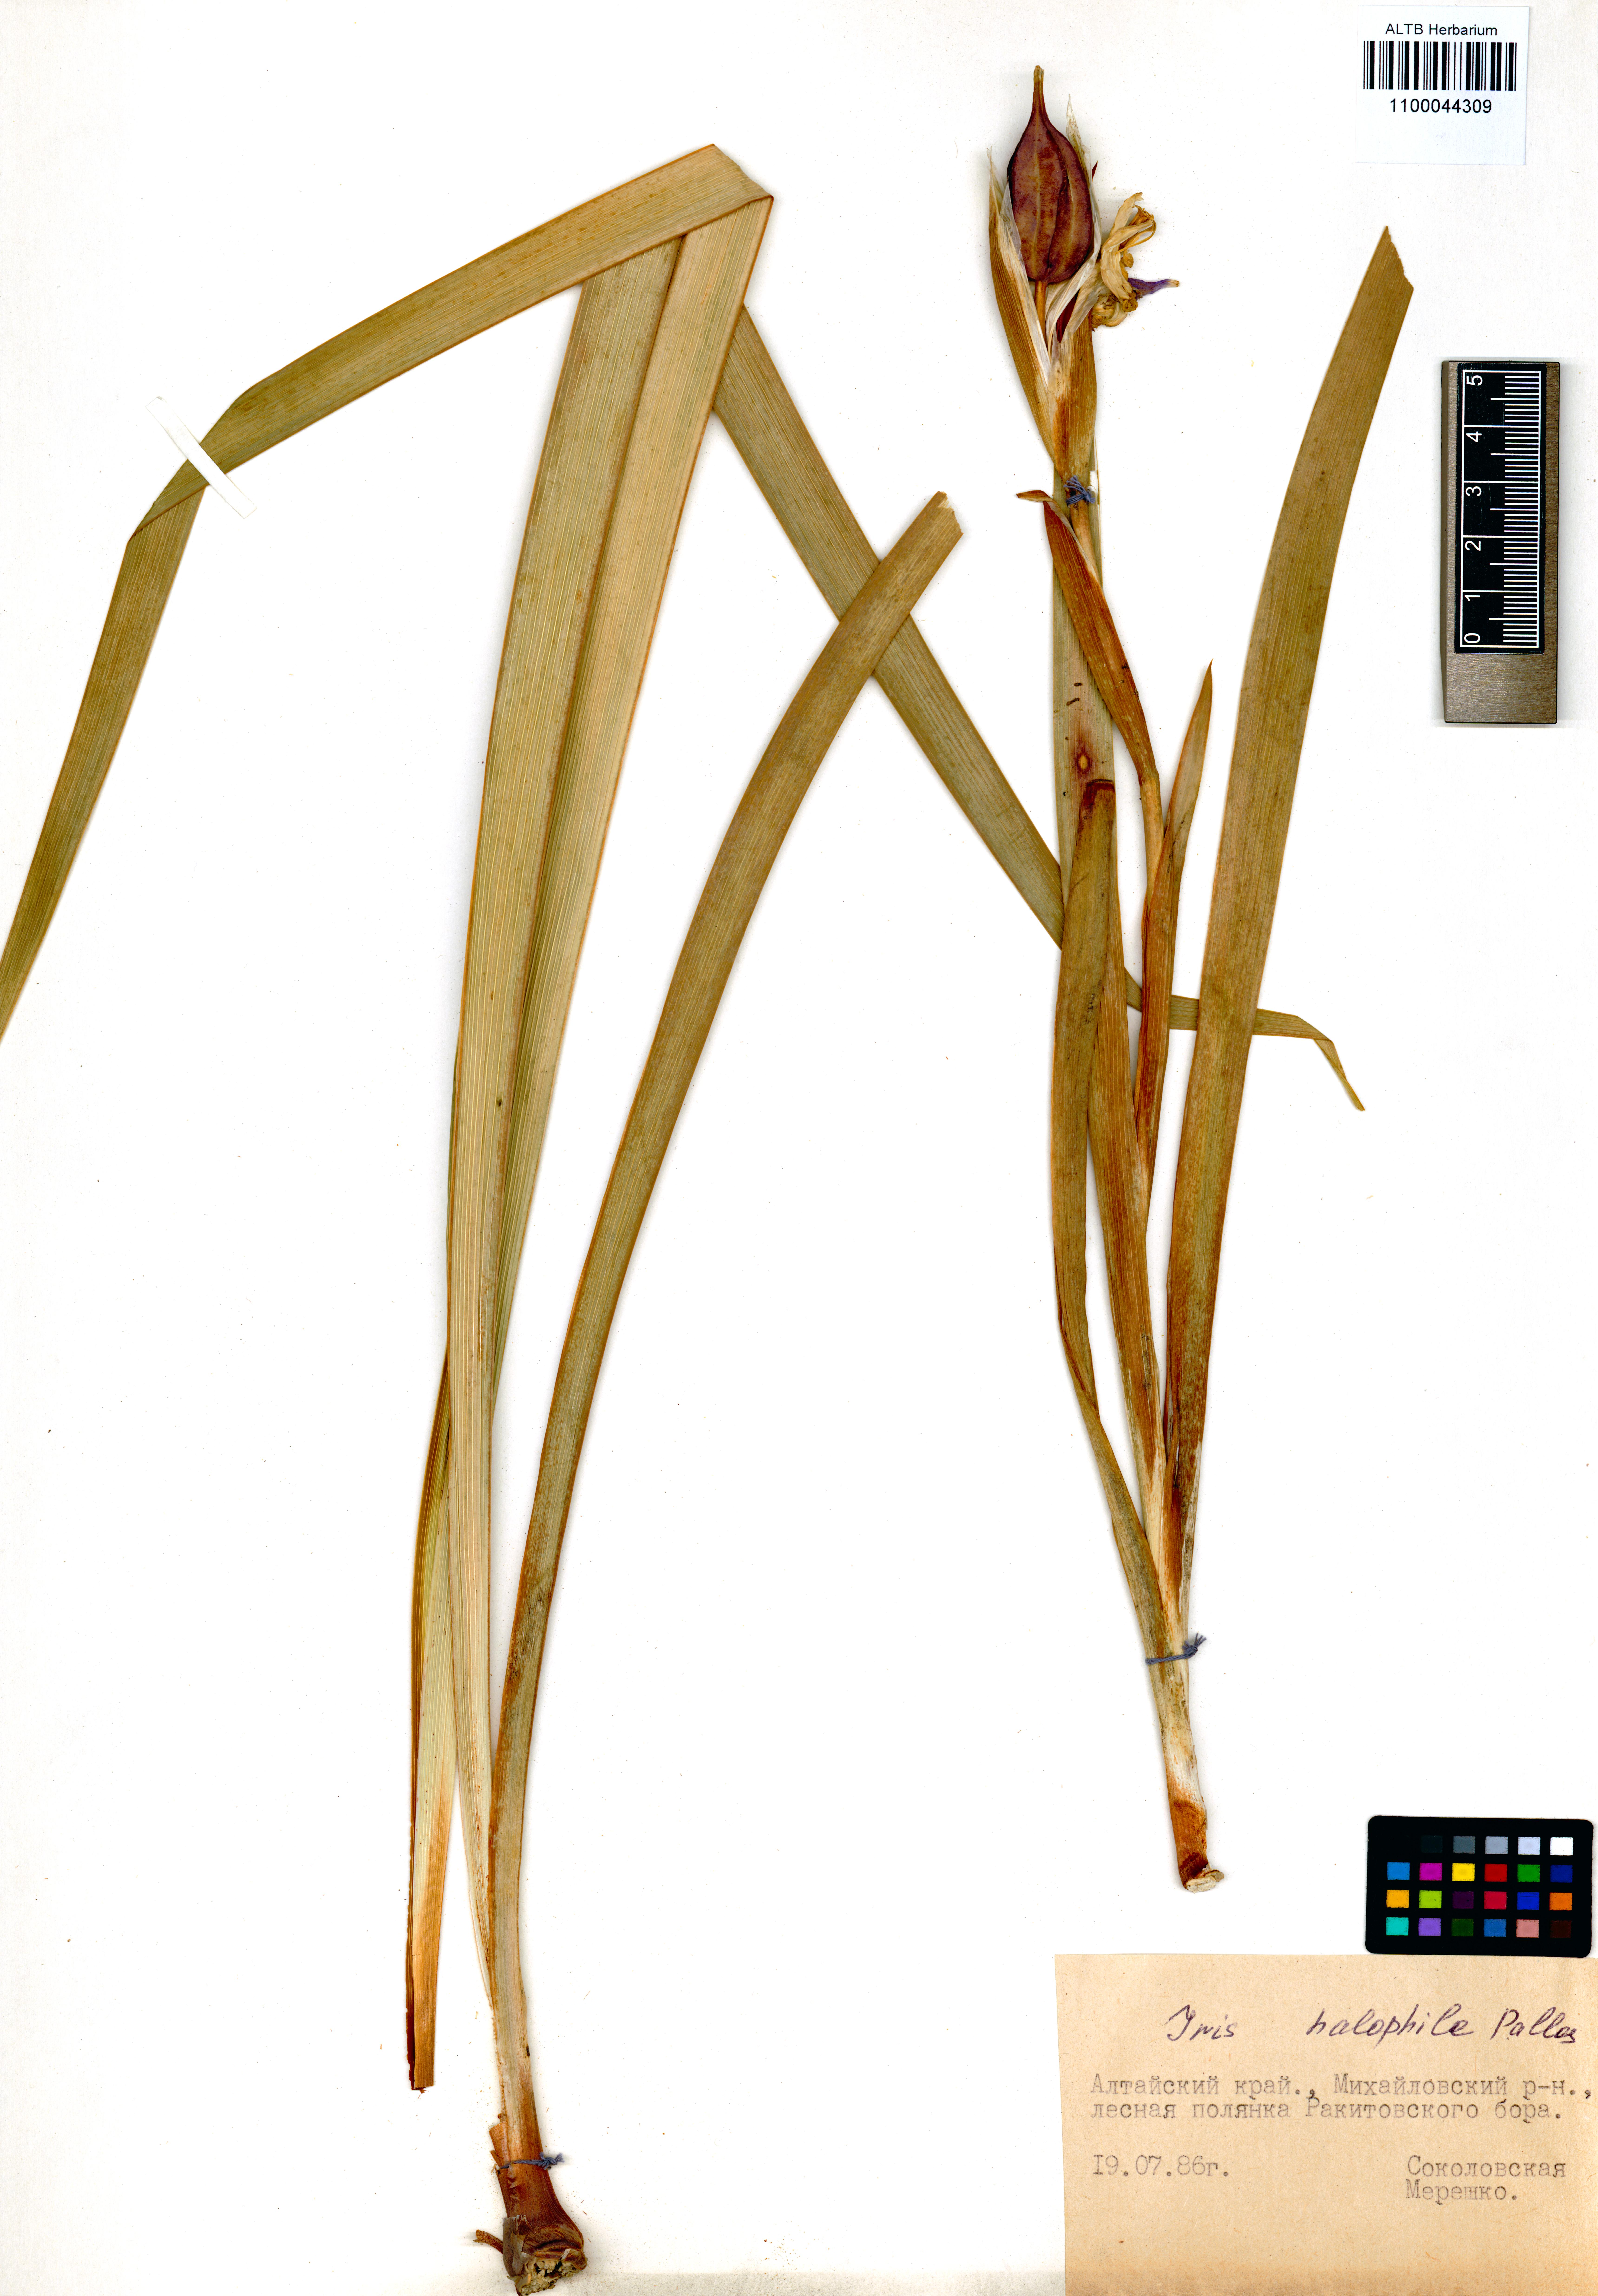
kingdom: Plantae
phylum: Tracheophyta
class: Liliopsida
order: Asparagales
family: Iridaceae
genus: Iris
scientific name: Iris halophila
